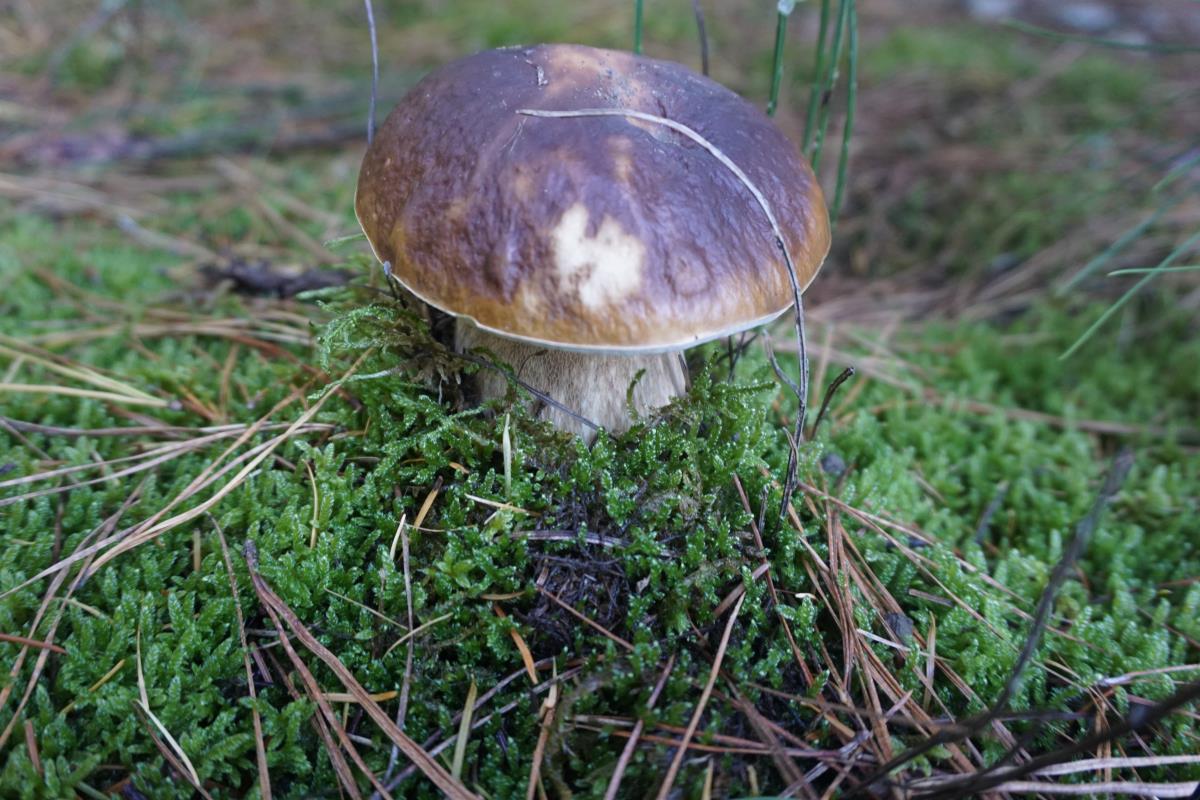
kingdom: Fungi
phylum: Basidiomycota
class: Agaricomycetes
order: Boletales
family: Boletaceae
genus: Boletus
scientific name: Boletus edulis
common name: Cep
